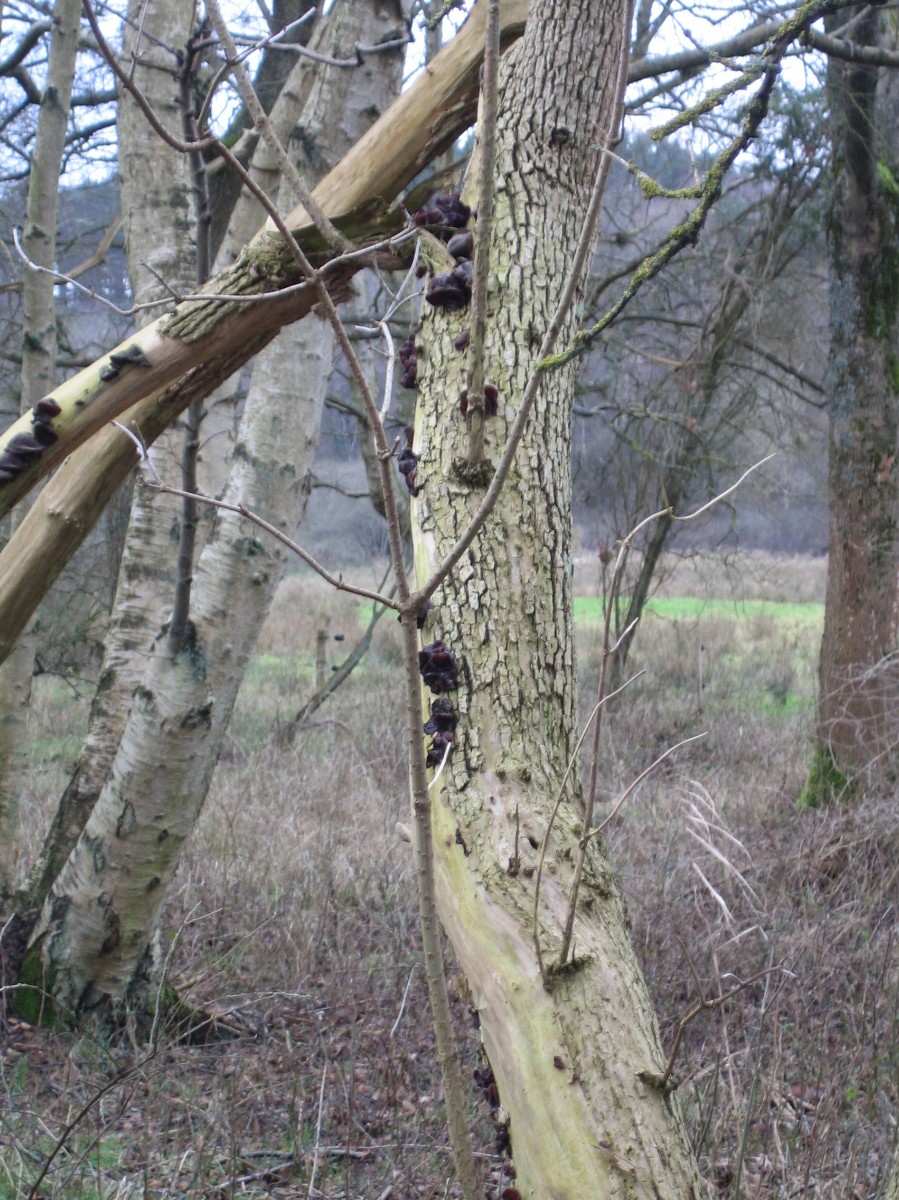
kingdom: Fungi
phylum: Basidiomycota
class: Agaricomycetes
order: Auriculariales
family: Auriculariaceae
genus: Auricularia
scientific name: Auricularia auricula-judae
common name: almindelig judasøre
